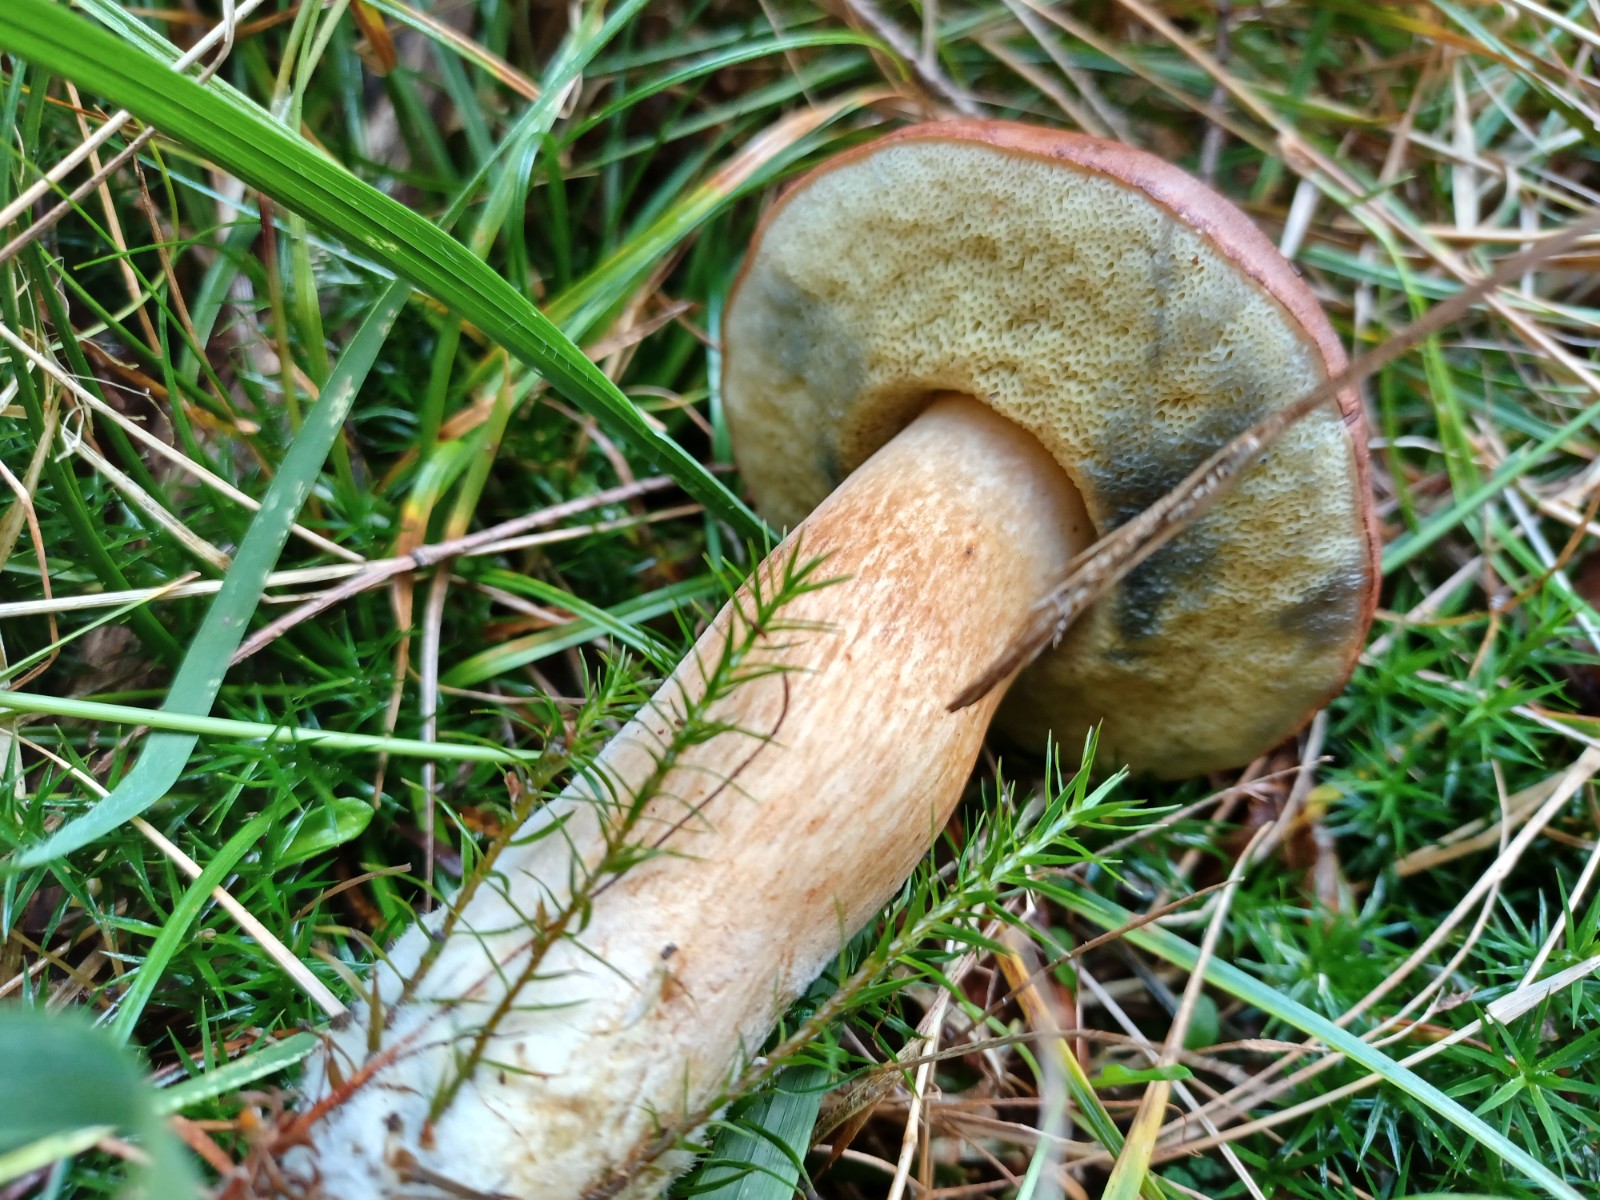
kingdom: Fungi
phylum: Basidiomycota
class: Agaricomycetes
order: Boletales
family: Boletaceae
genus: Imleria
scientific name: Imleria badia
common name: brunstokket rørhat
